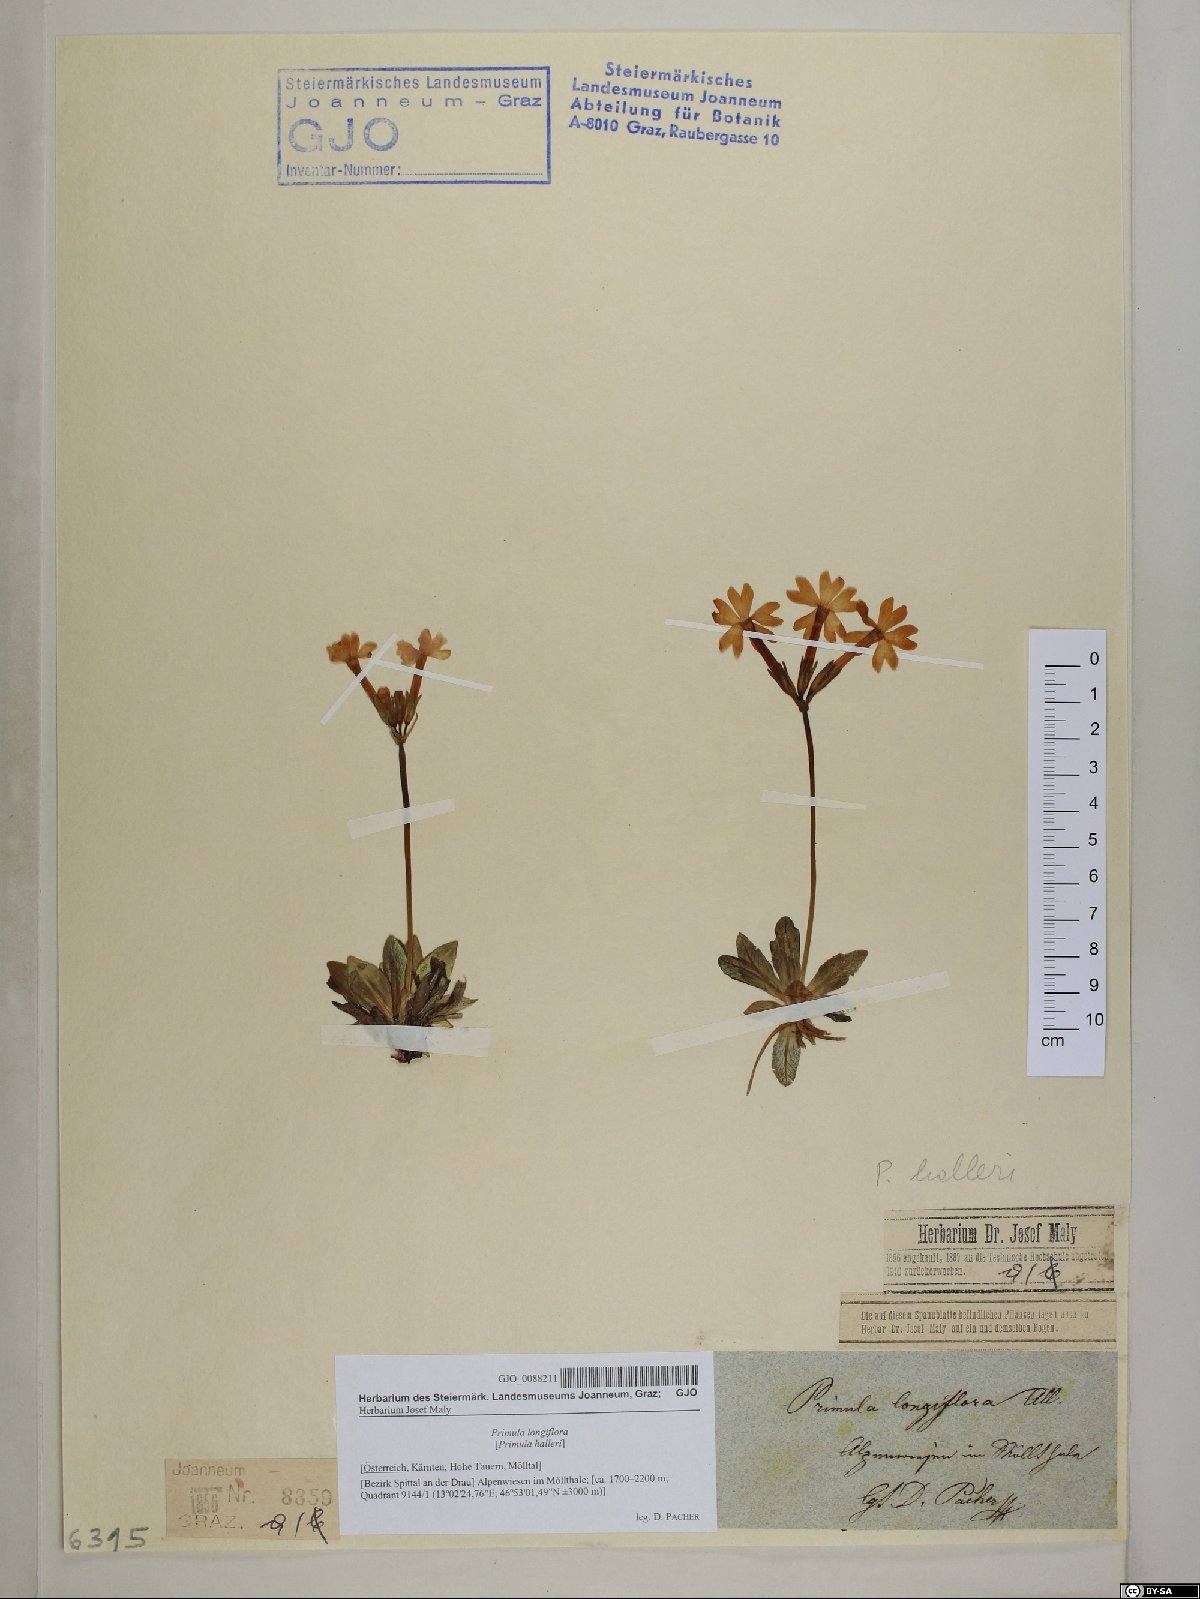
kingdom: Plantae
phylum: Tracheophyta
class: Magnoliopsida
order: Ericales
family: Primulaceae
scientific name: Primulaceae
